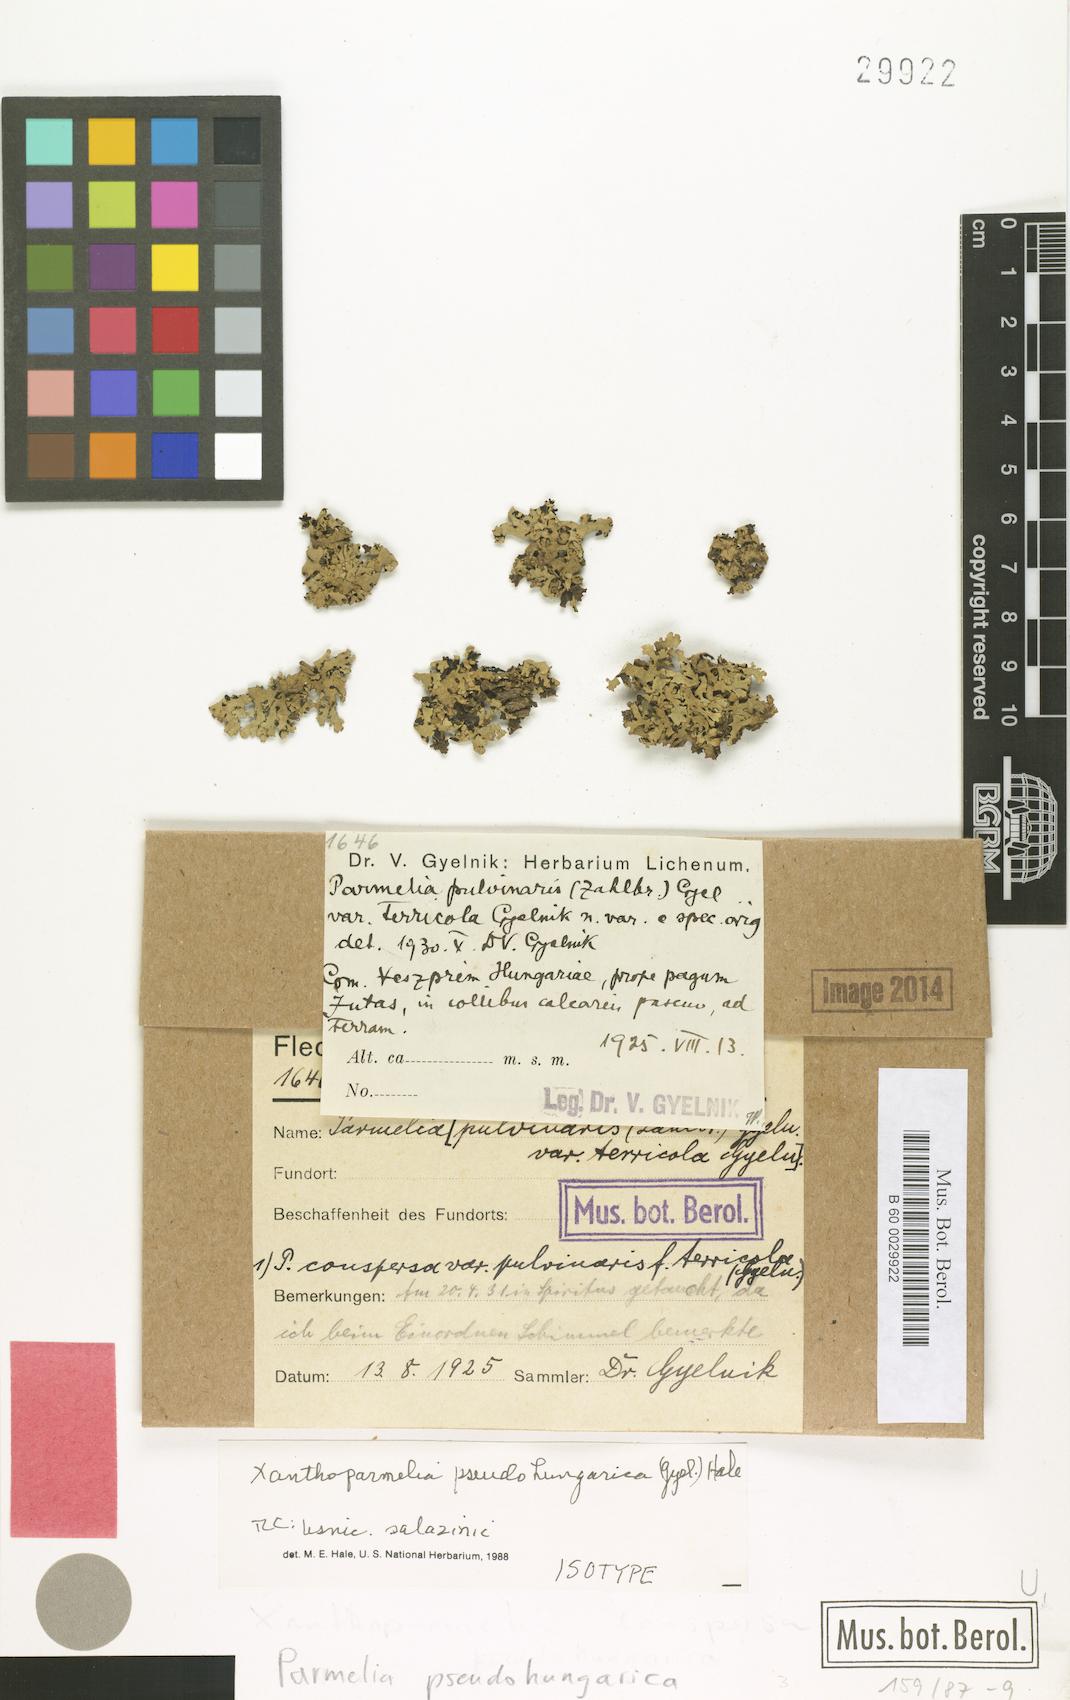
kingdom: Fungi
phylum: Ascomycota
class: Lecanoromycetes
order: Lecanorales
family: Parmeliaceae
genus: Parmelia
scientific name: Parmelia
